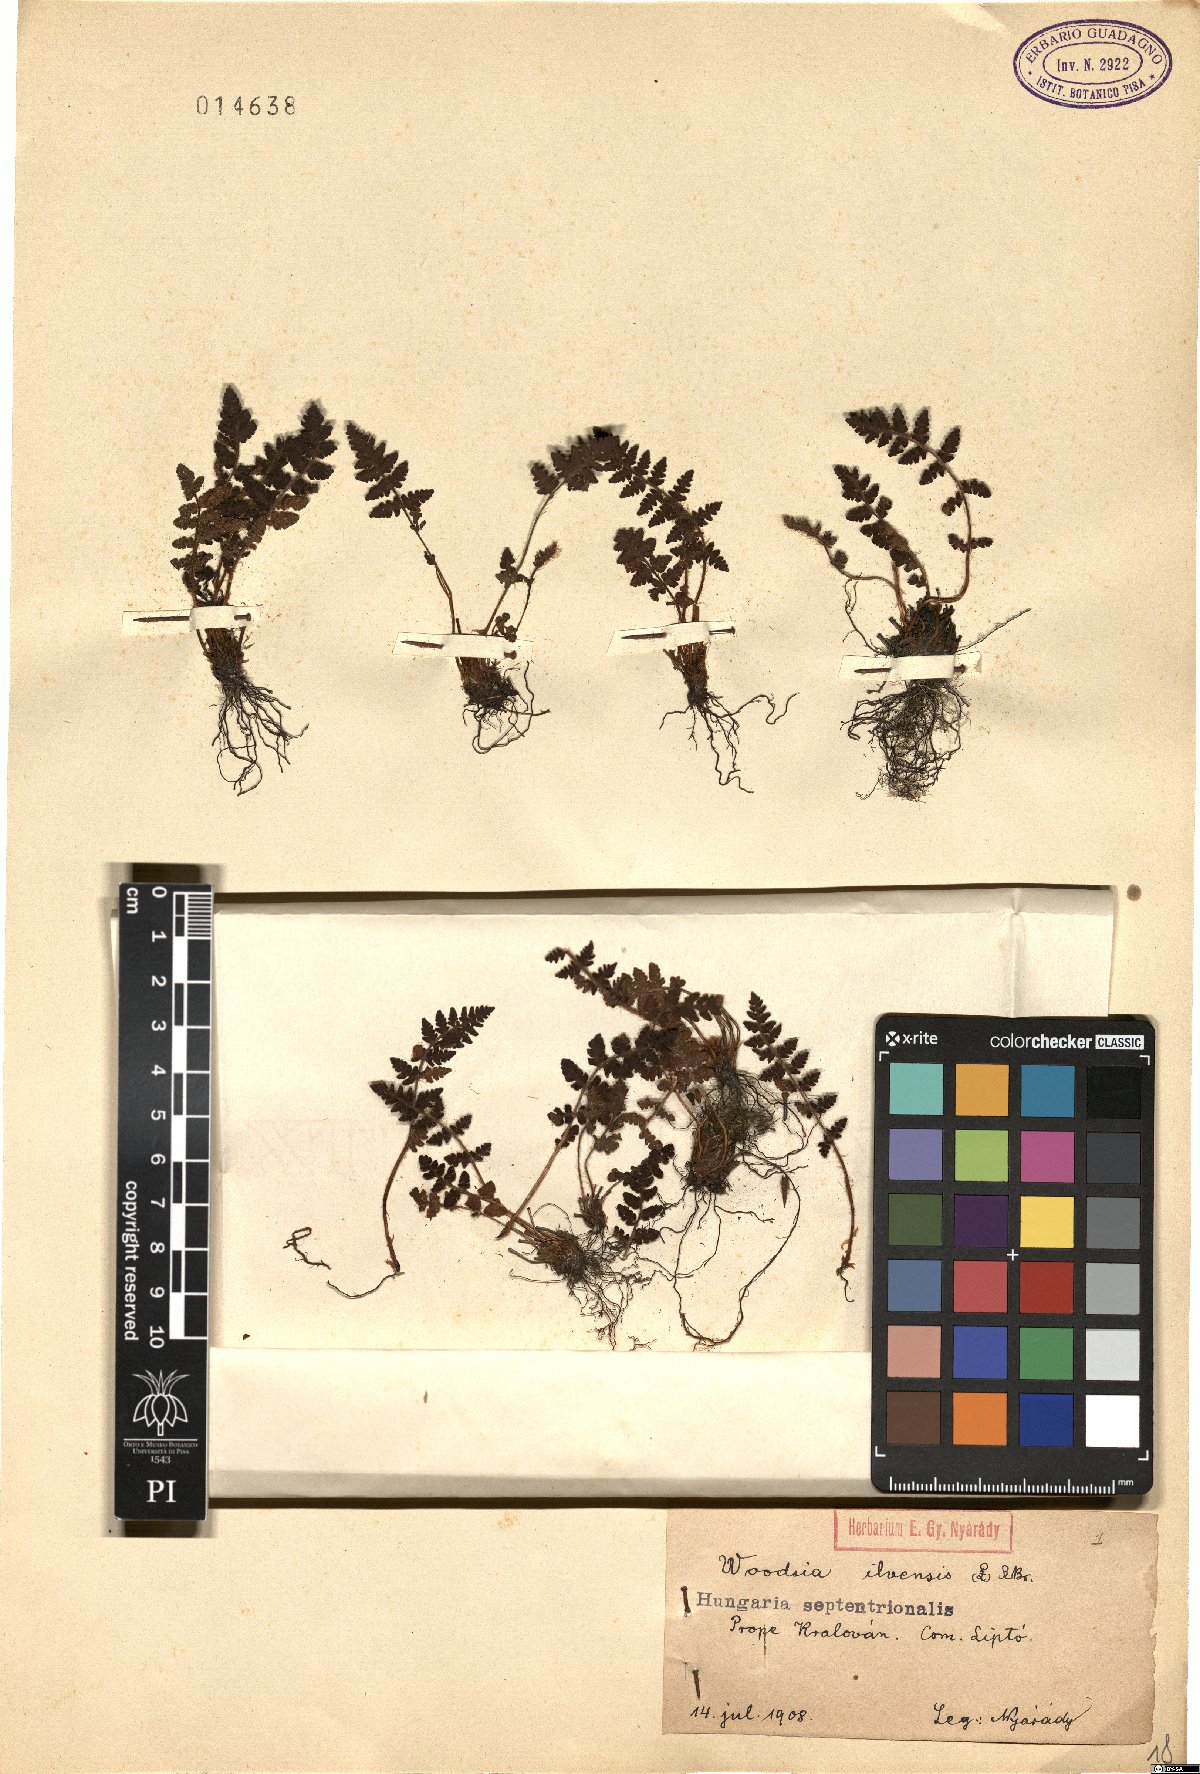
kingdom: Plantae
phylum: Tracheophyta
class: Polypodiopsida
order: Polypodiales
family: Woodsiaceae
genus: Woodsia
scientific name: Woodsia ilvensis
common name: Fragrant woodsia
